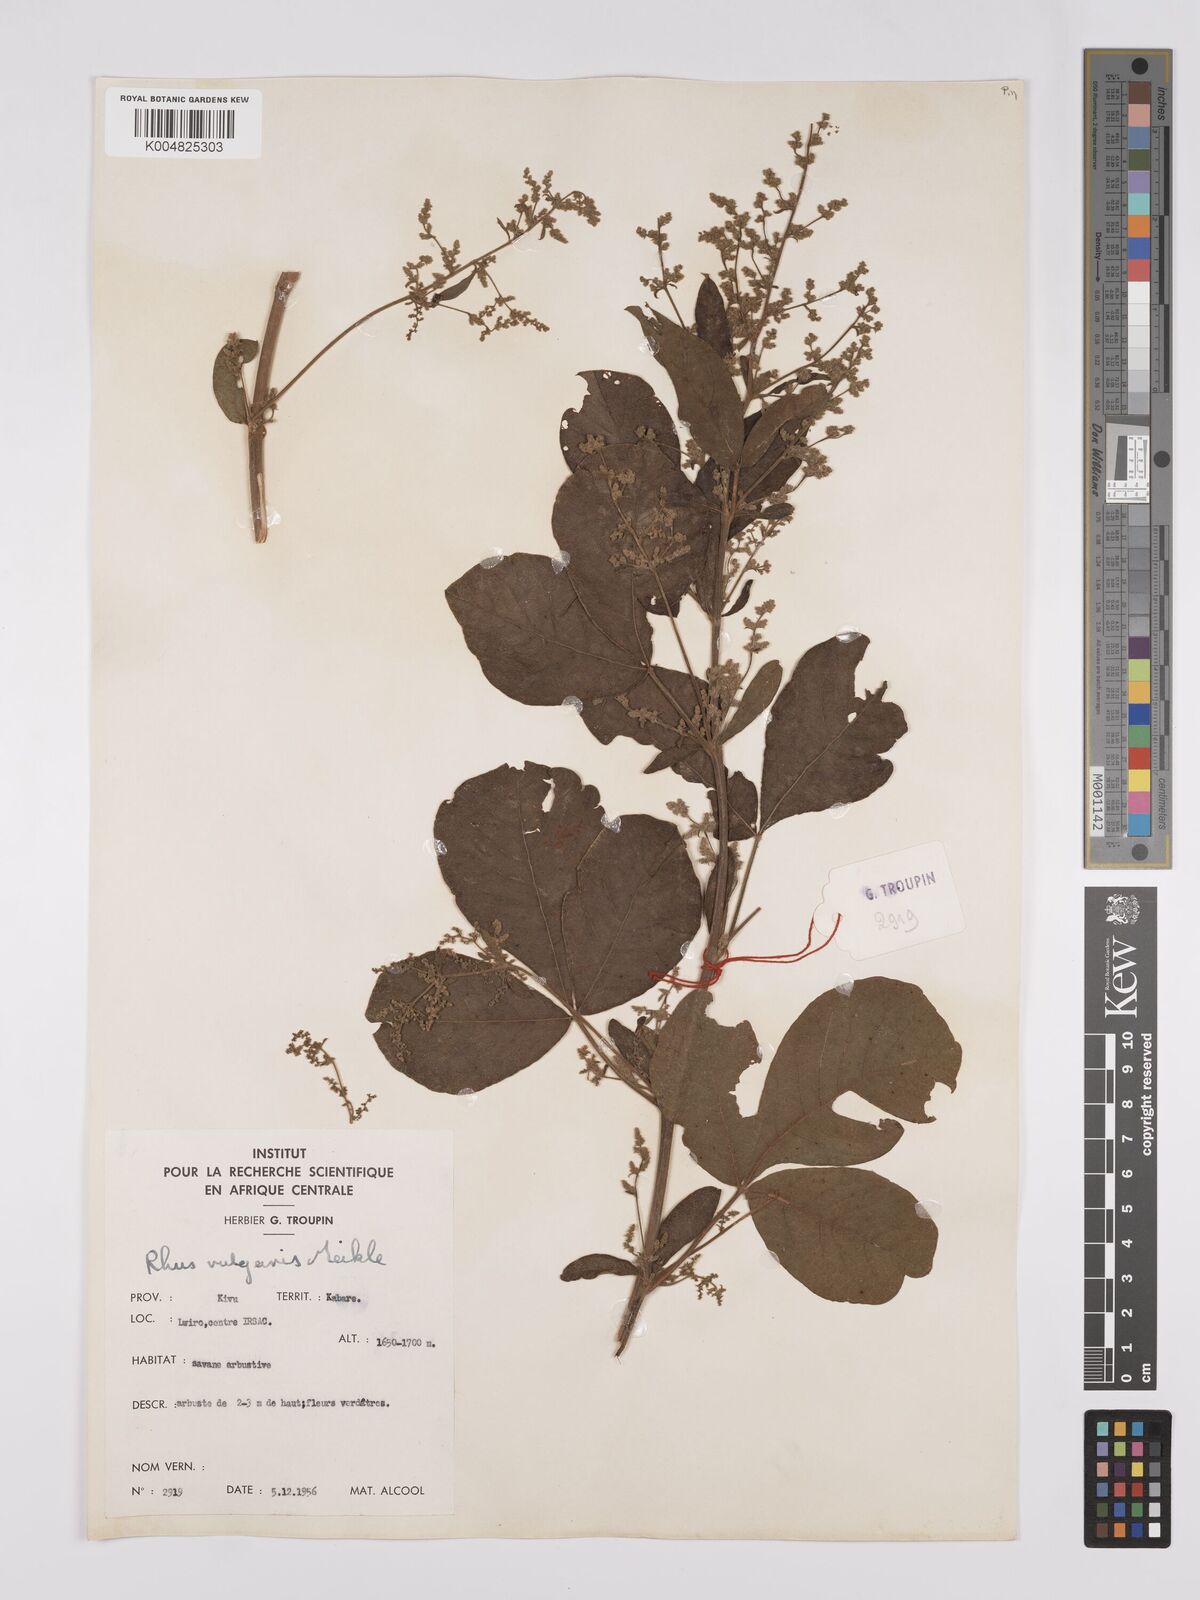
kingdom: Plantae
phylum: Tracheophyta
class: Magnoliopsida
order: Sapindales
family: Anacardiaceae
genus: Rhus
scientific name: Rhus
